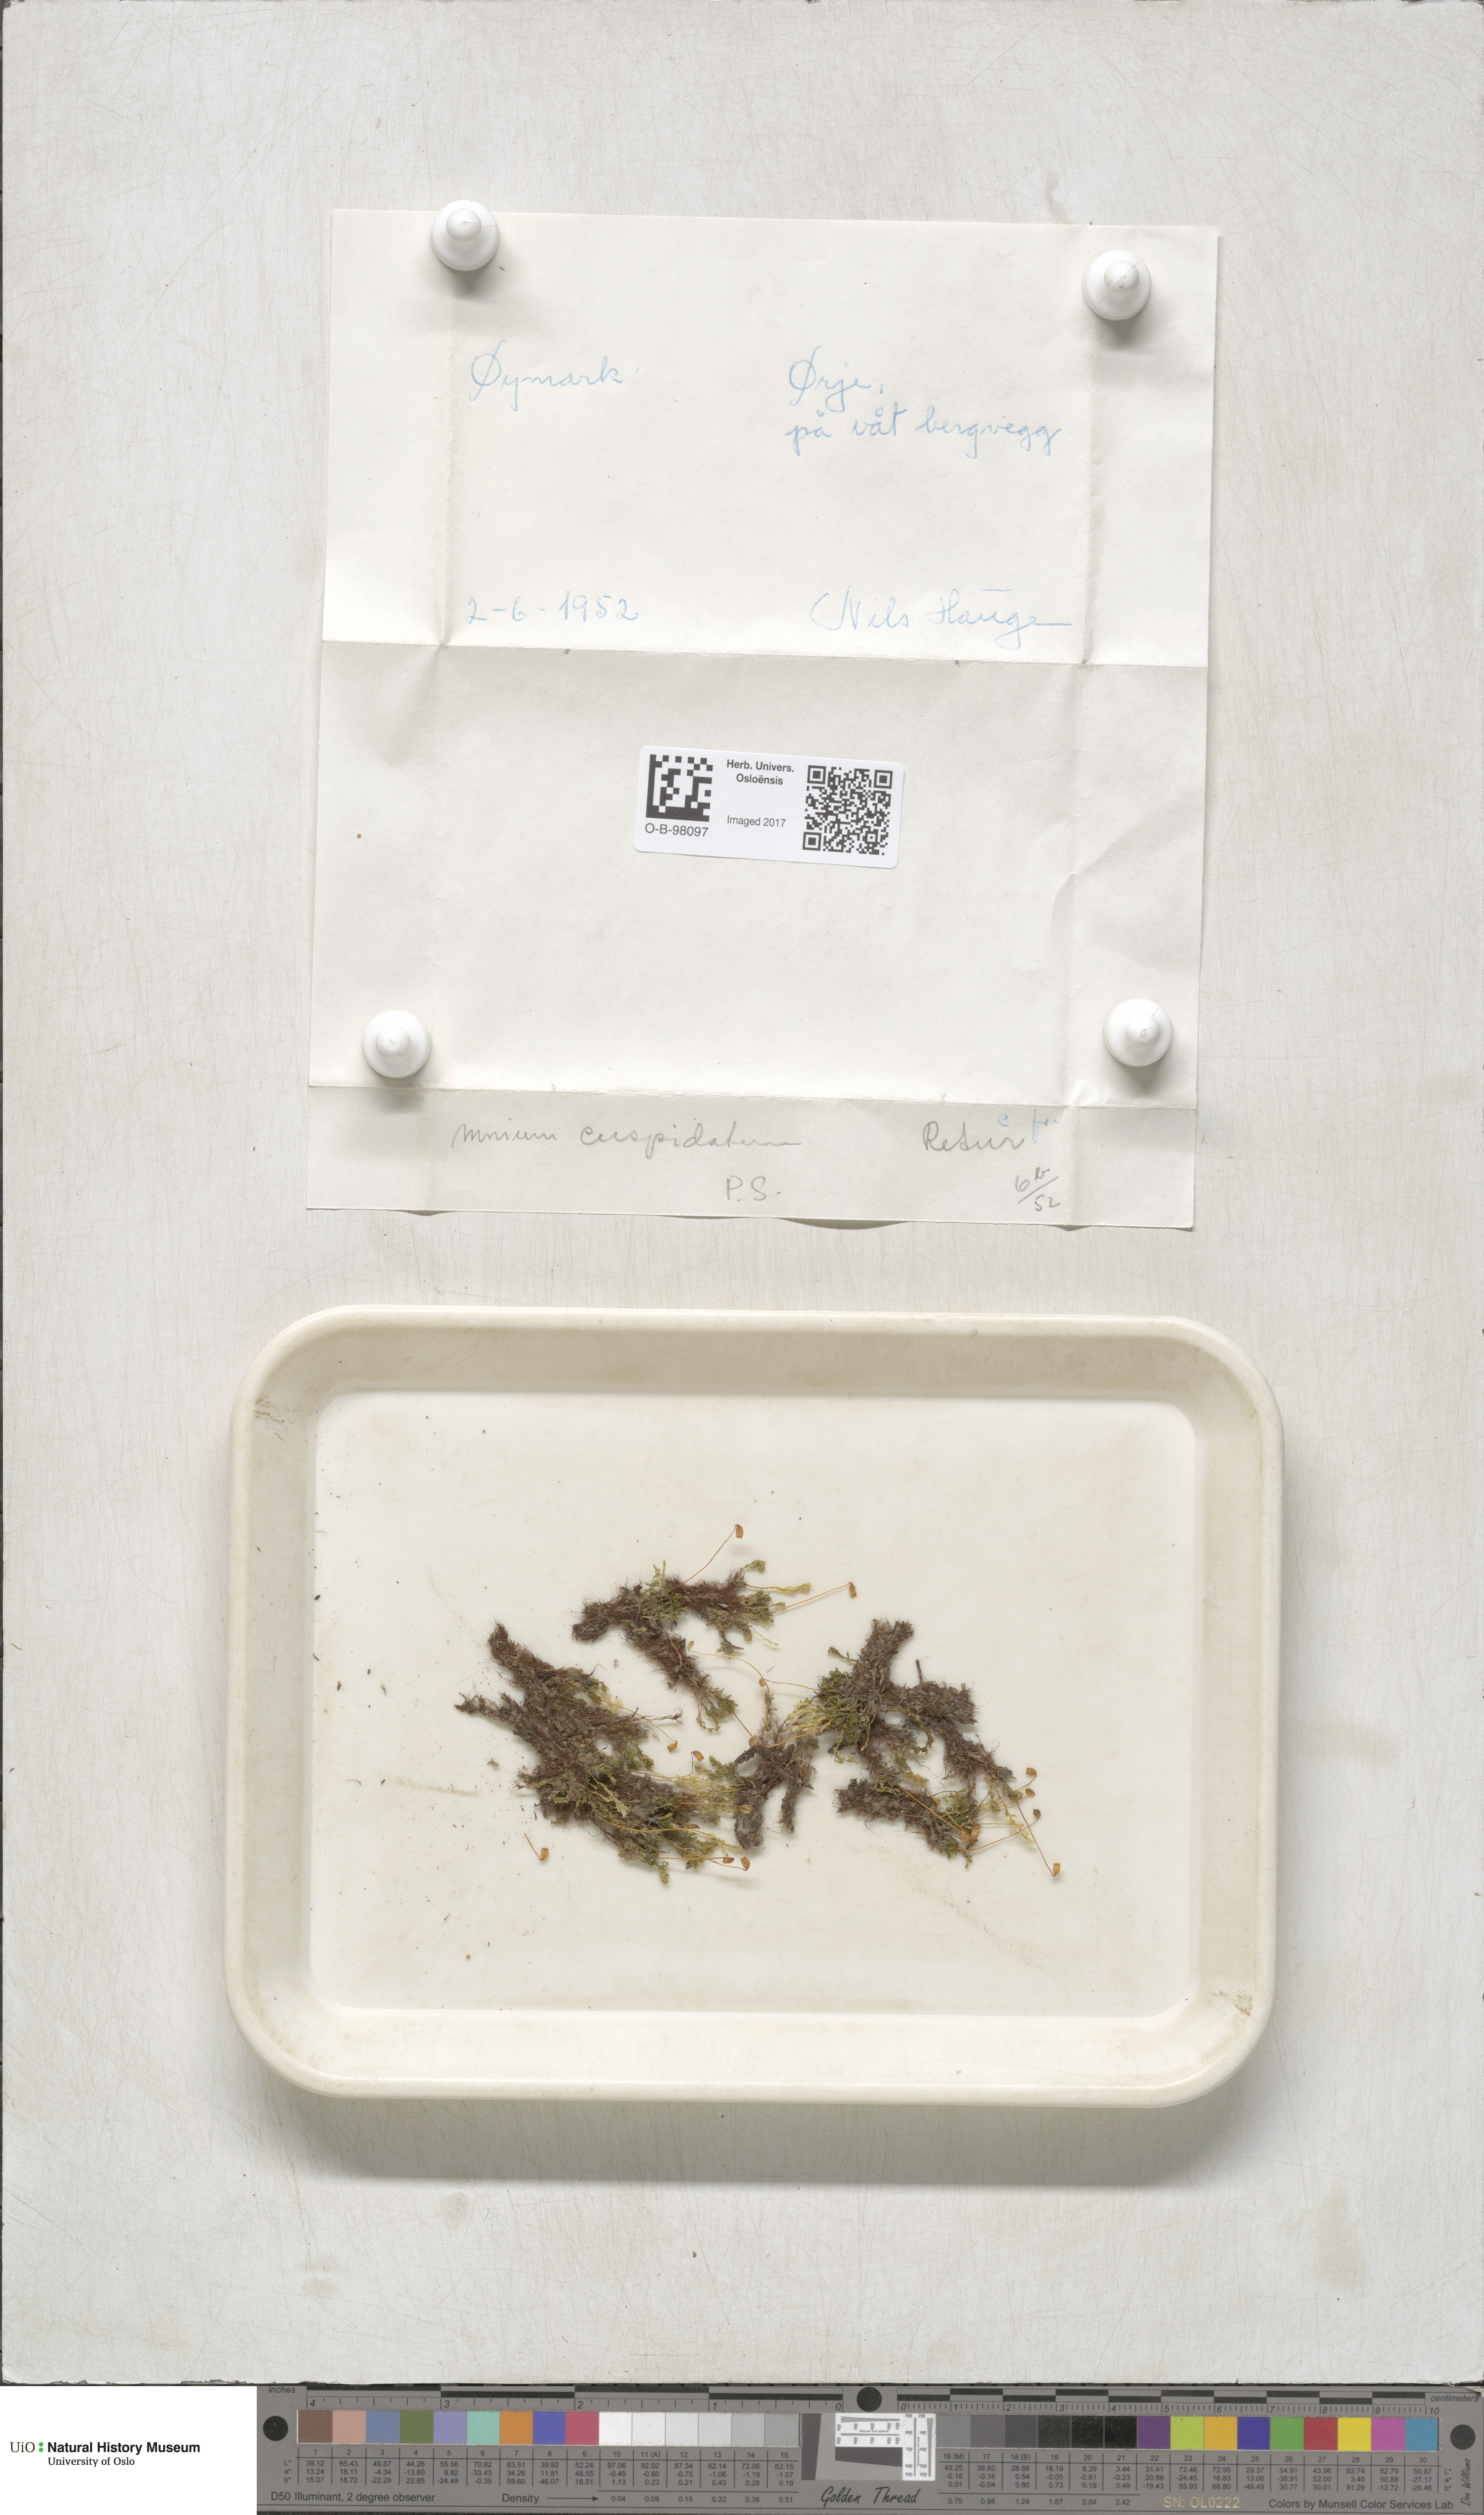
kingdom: Plantae
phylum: Bryophyta
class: Bryopsida
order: Bryales
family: Mniaceae
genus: Plagiomnium
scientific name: Plagiomnium cuspidatum
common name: Woodsy leafy moss
